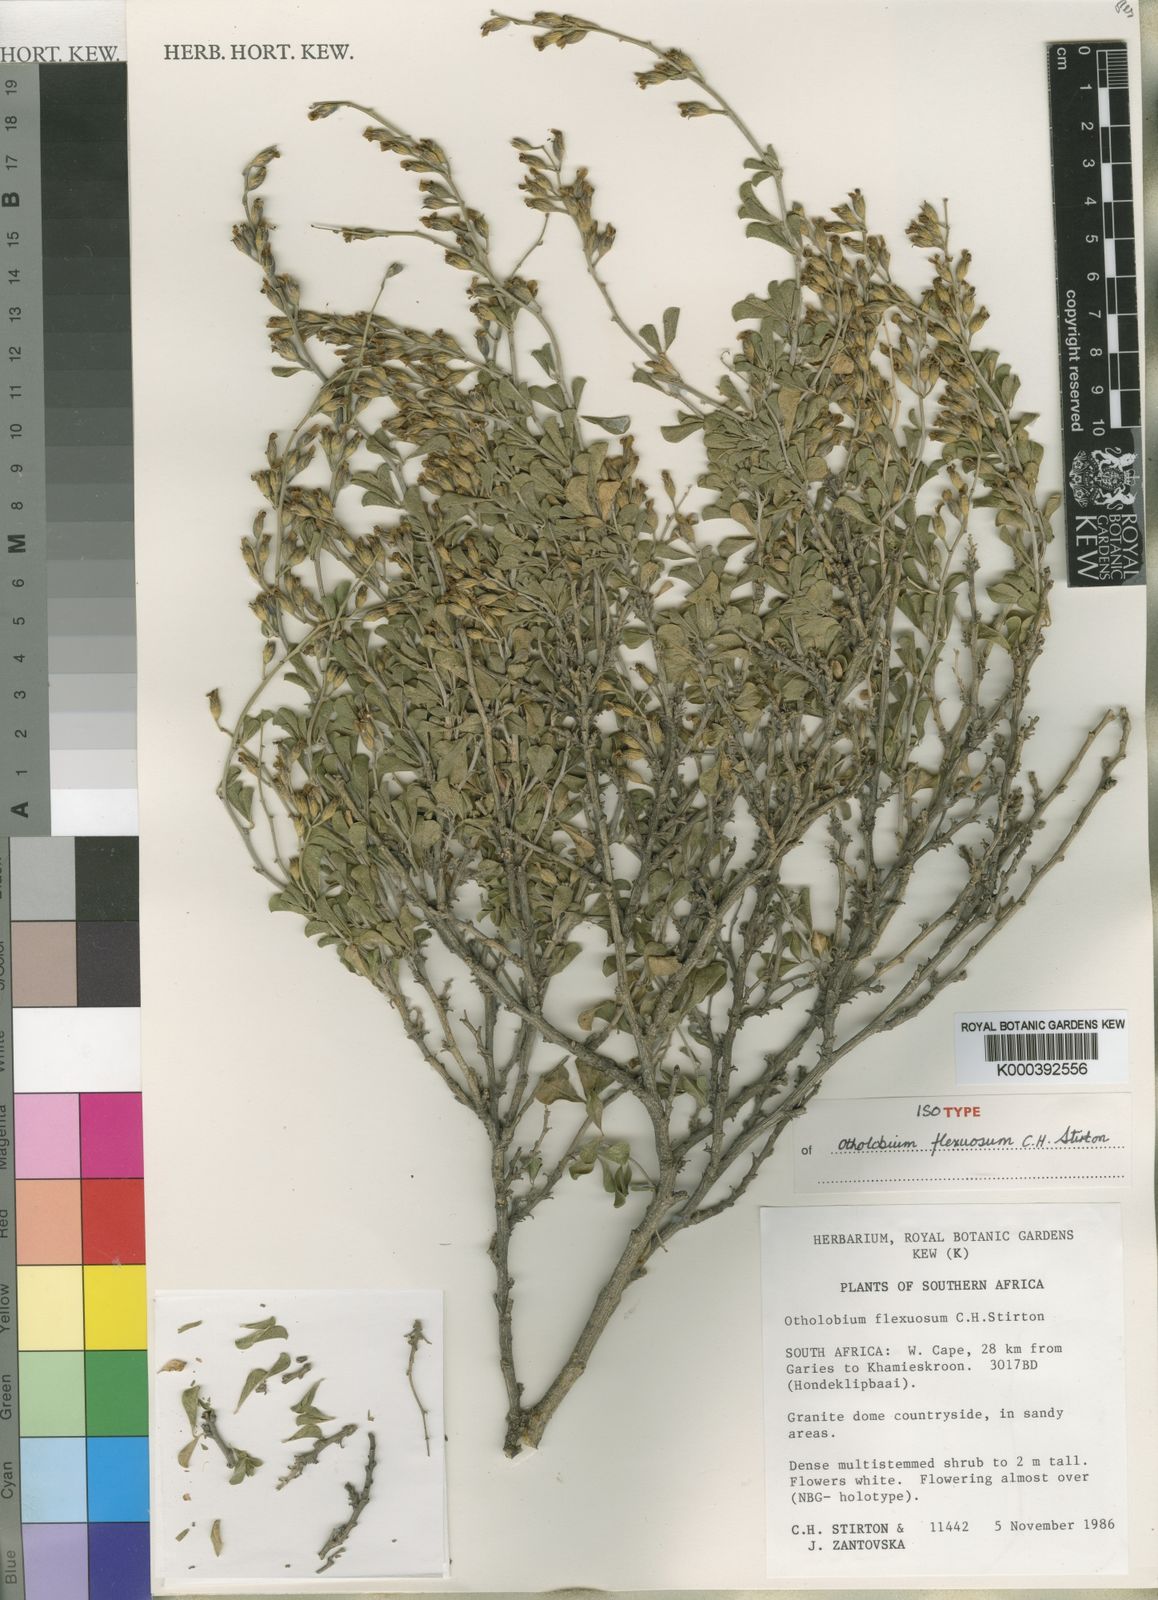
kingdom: Plantae
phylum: Tracheophyta
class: Magnoliopsida
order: Fabales
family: Fabaceae
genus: Psoralea
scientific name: Psoralea flexuosa
